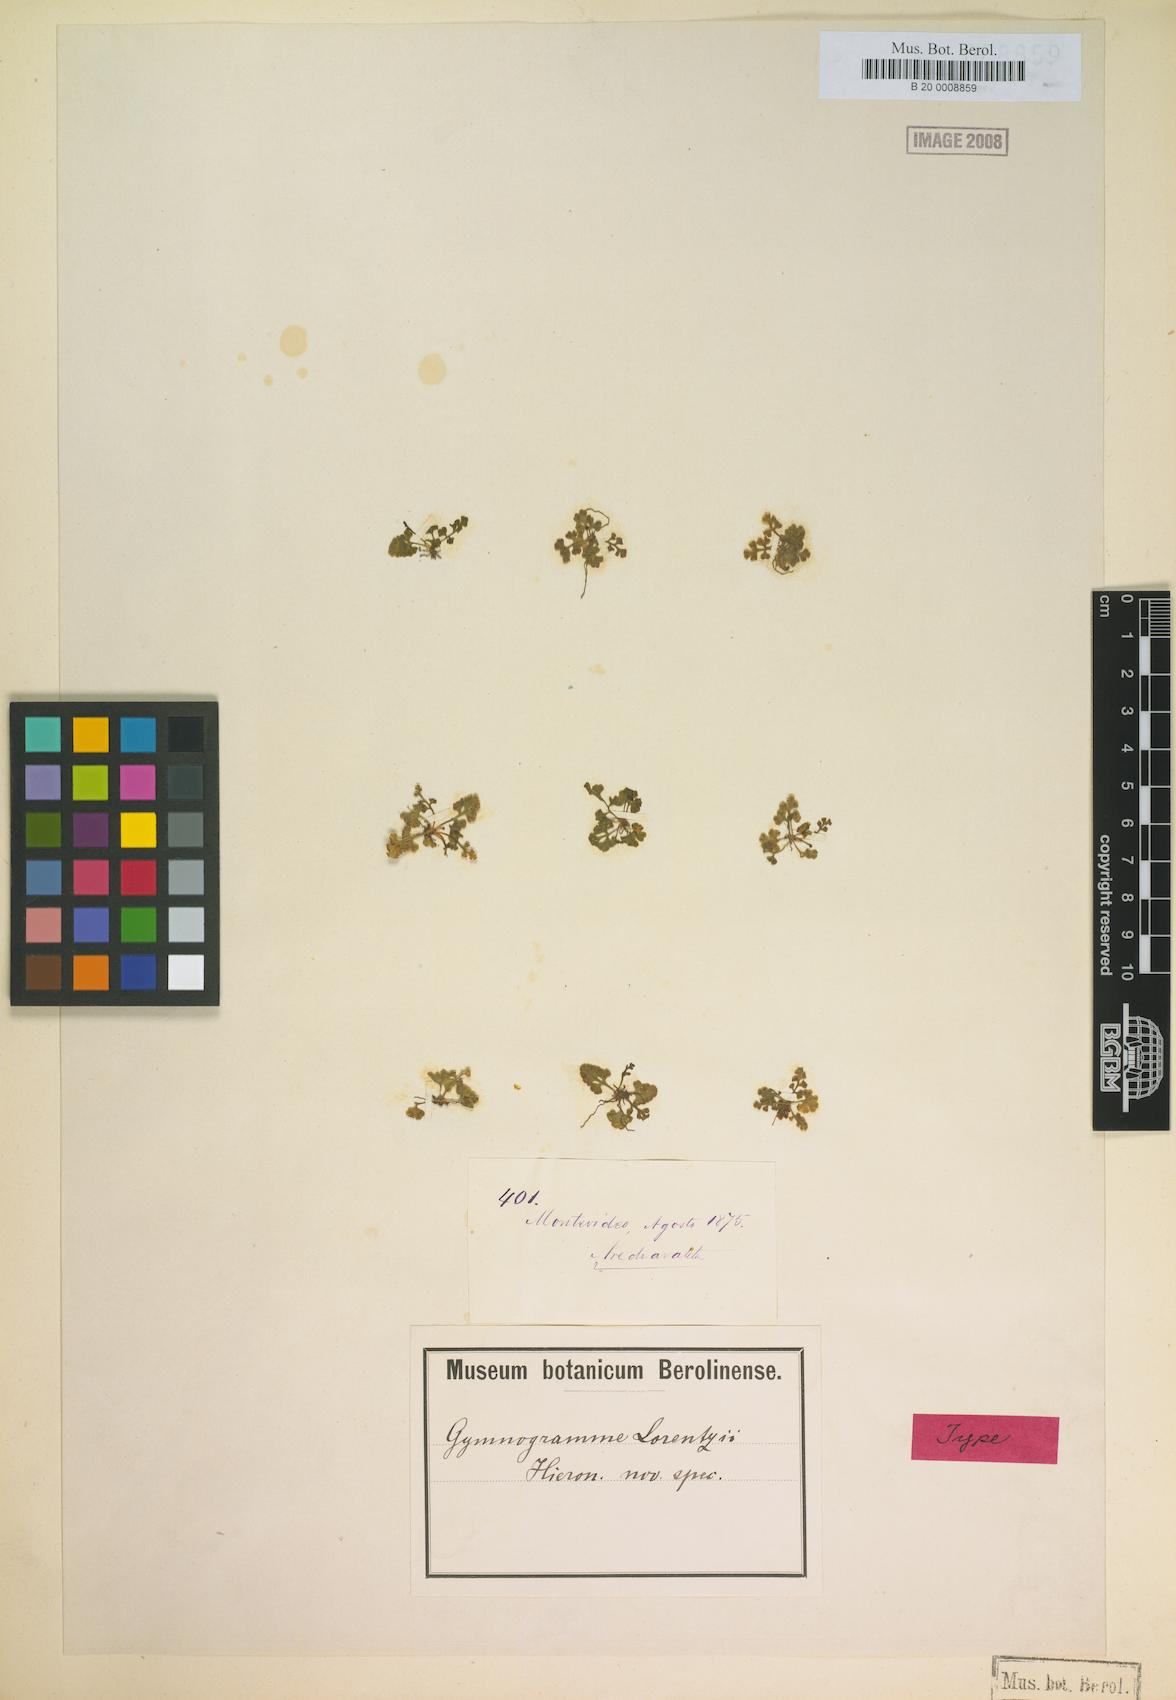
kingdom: Plantae
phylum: Tracheophyta
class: Polypodiopsida
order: Polypodiales
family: Pteridaceae
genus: Anogramma
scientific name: Anogramma lorentzii
